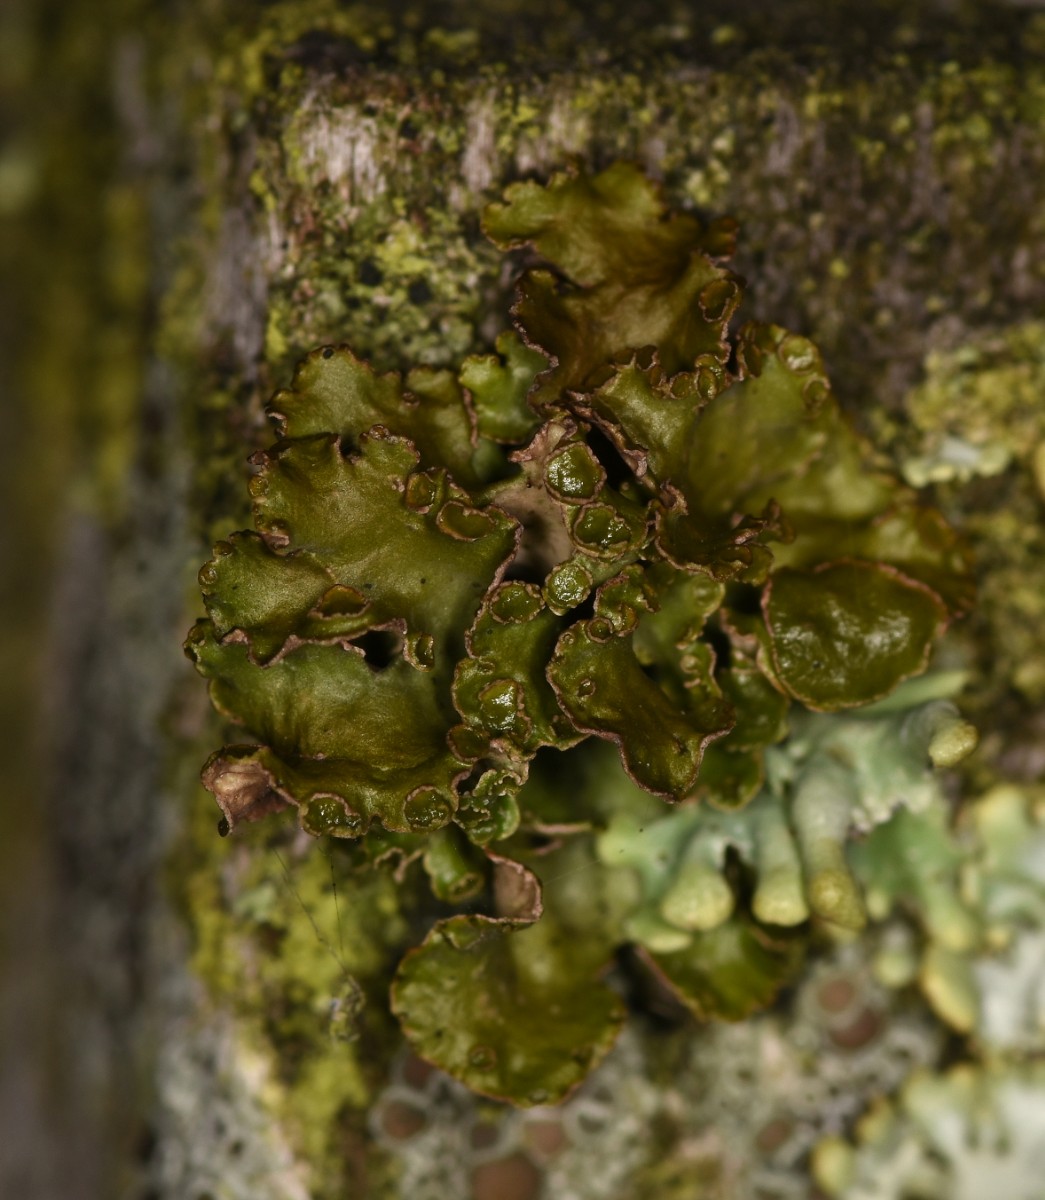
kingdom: Fungi
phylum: Ascomycota
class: Lecanoromycetes
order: Lecanorales
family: Parmeliaceae
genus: Cetraria
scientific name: Cetraria sepincola
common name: tue-kruslav
